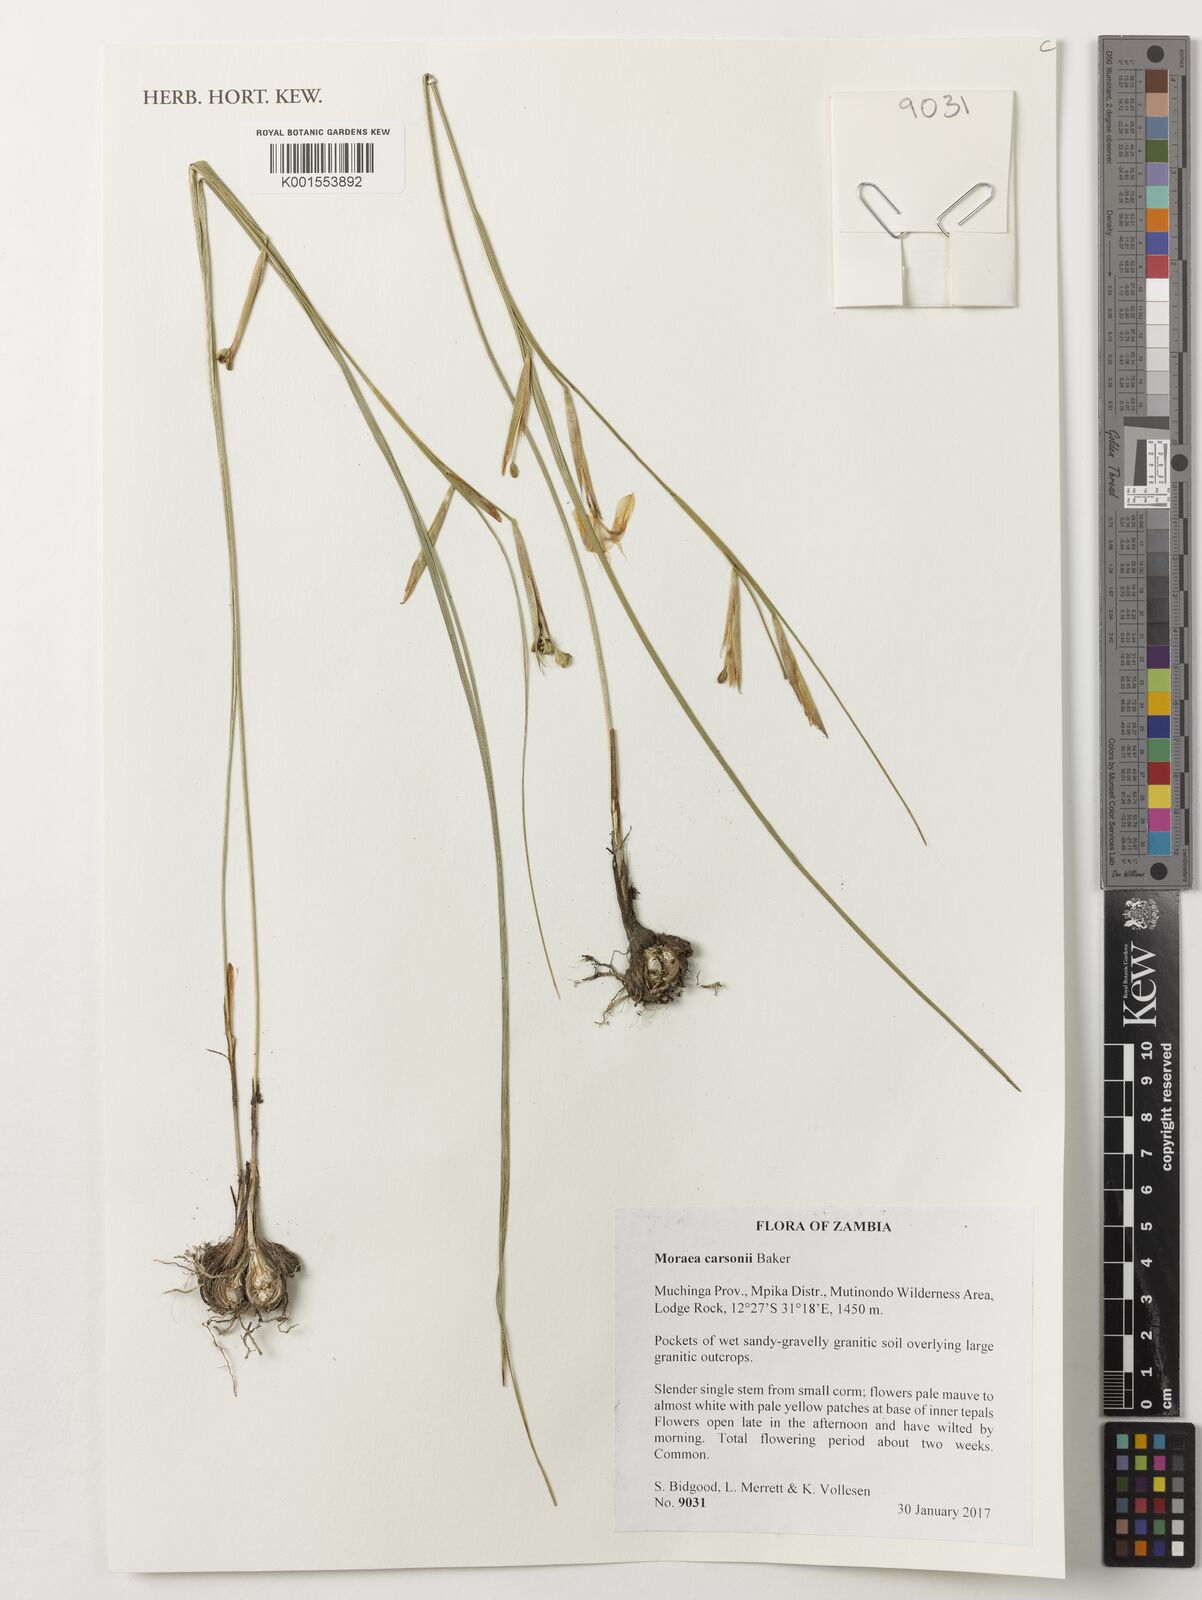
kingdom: Plantae
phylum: Tracheophyta
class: Liliopsida
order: Asparagales
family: Iridaceae
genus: Moraea
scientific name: Moraea carsonii
